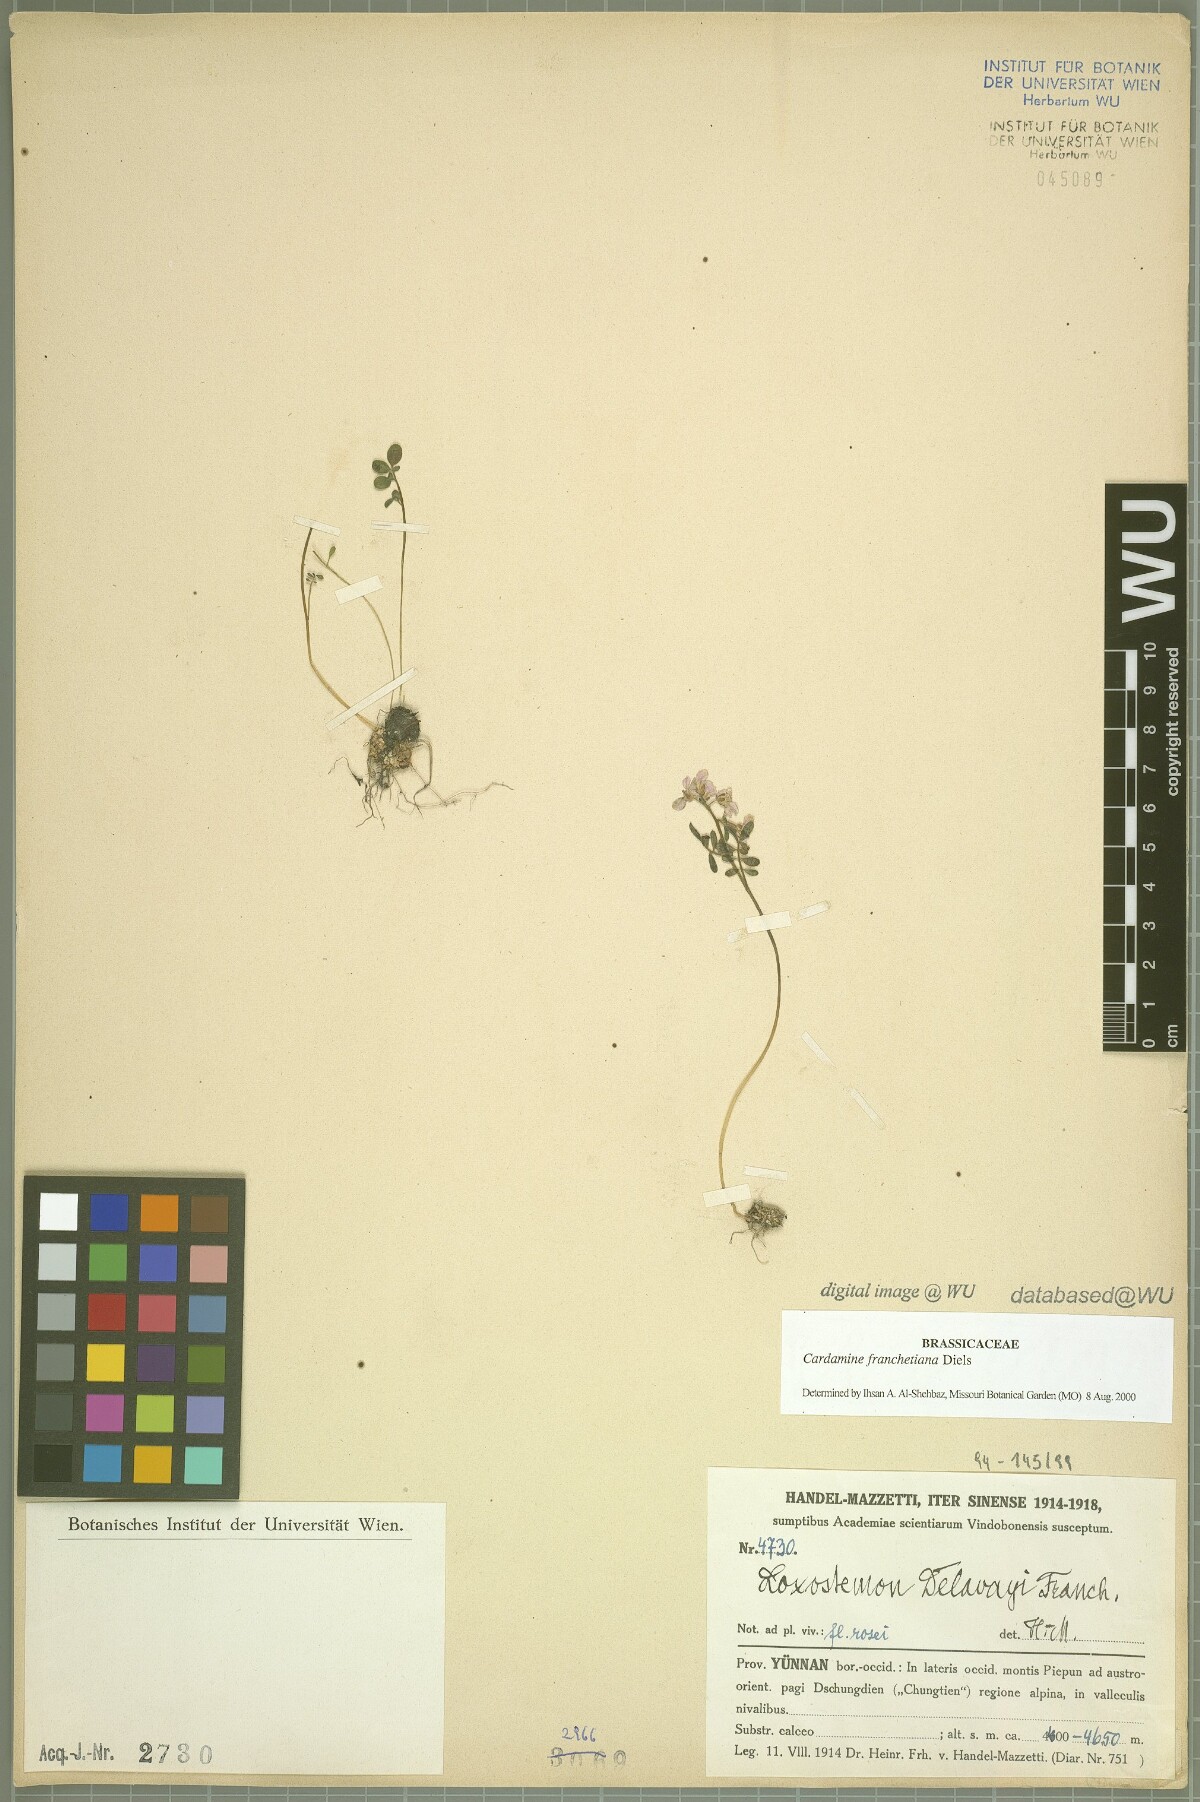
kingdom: Plantae
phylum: Tracheophyta
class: Magnoliopsida
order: Brassicales
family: Brassicaceae
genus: Cardamine
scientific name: Cardamine franchetiana
